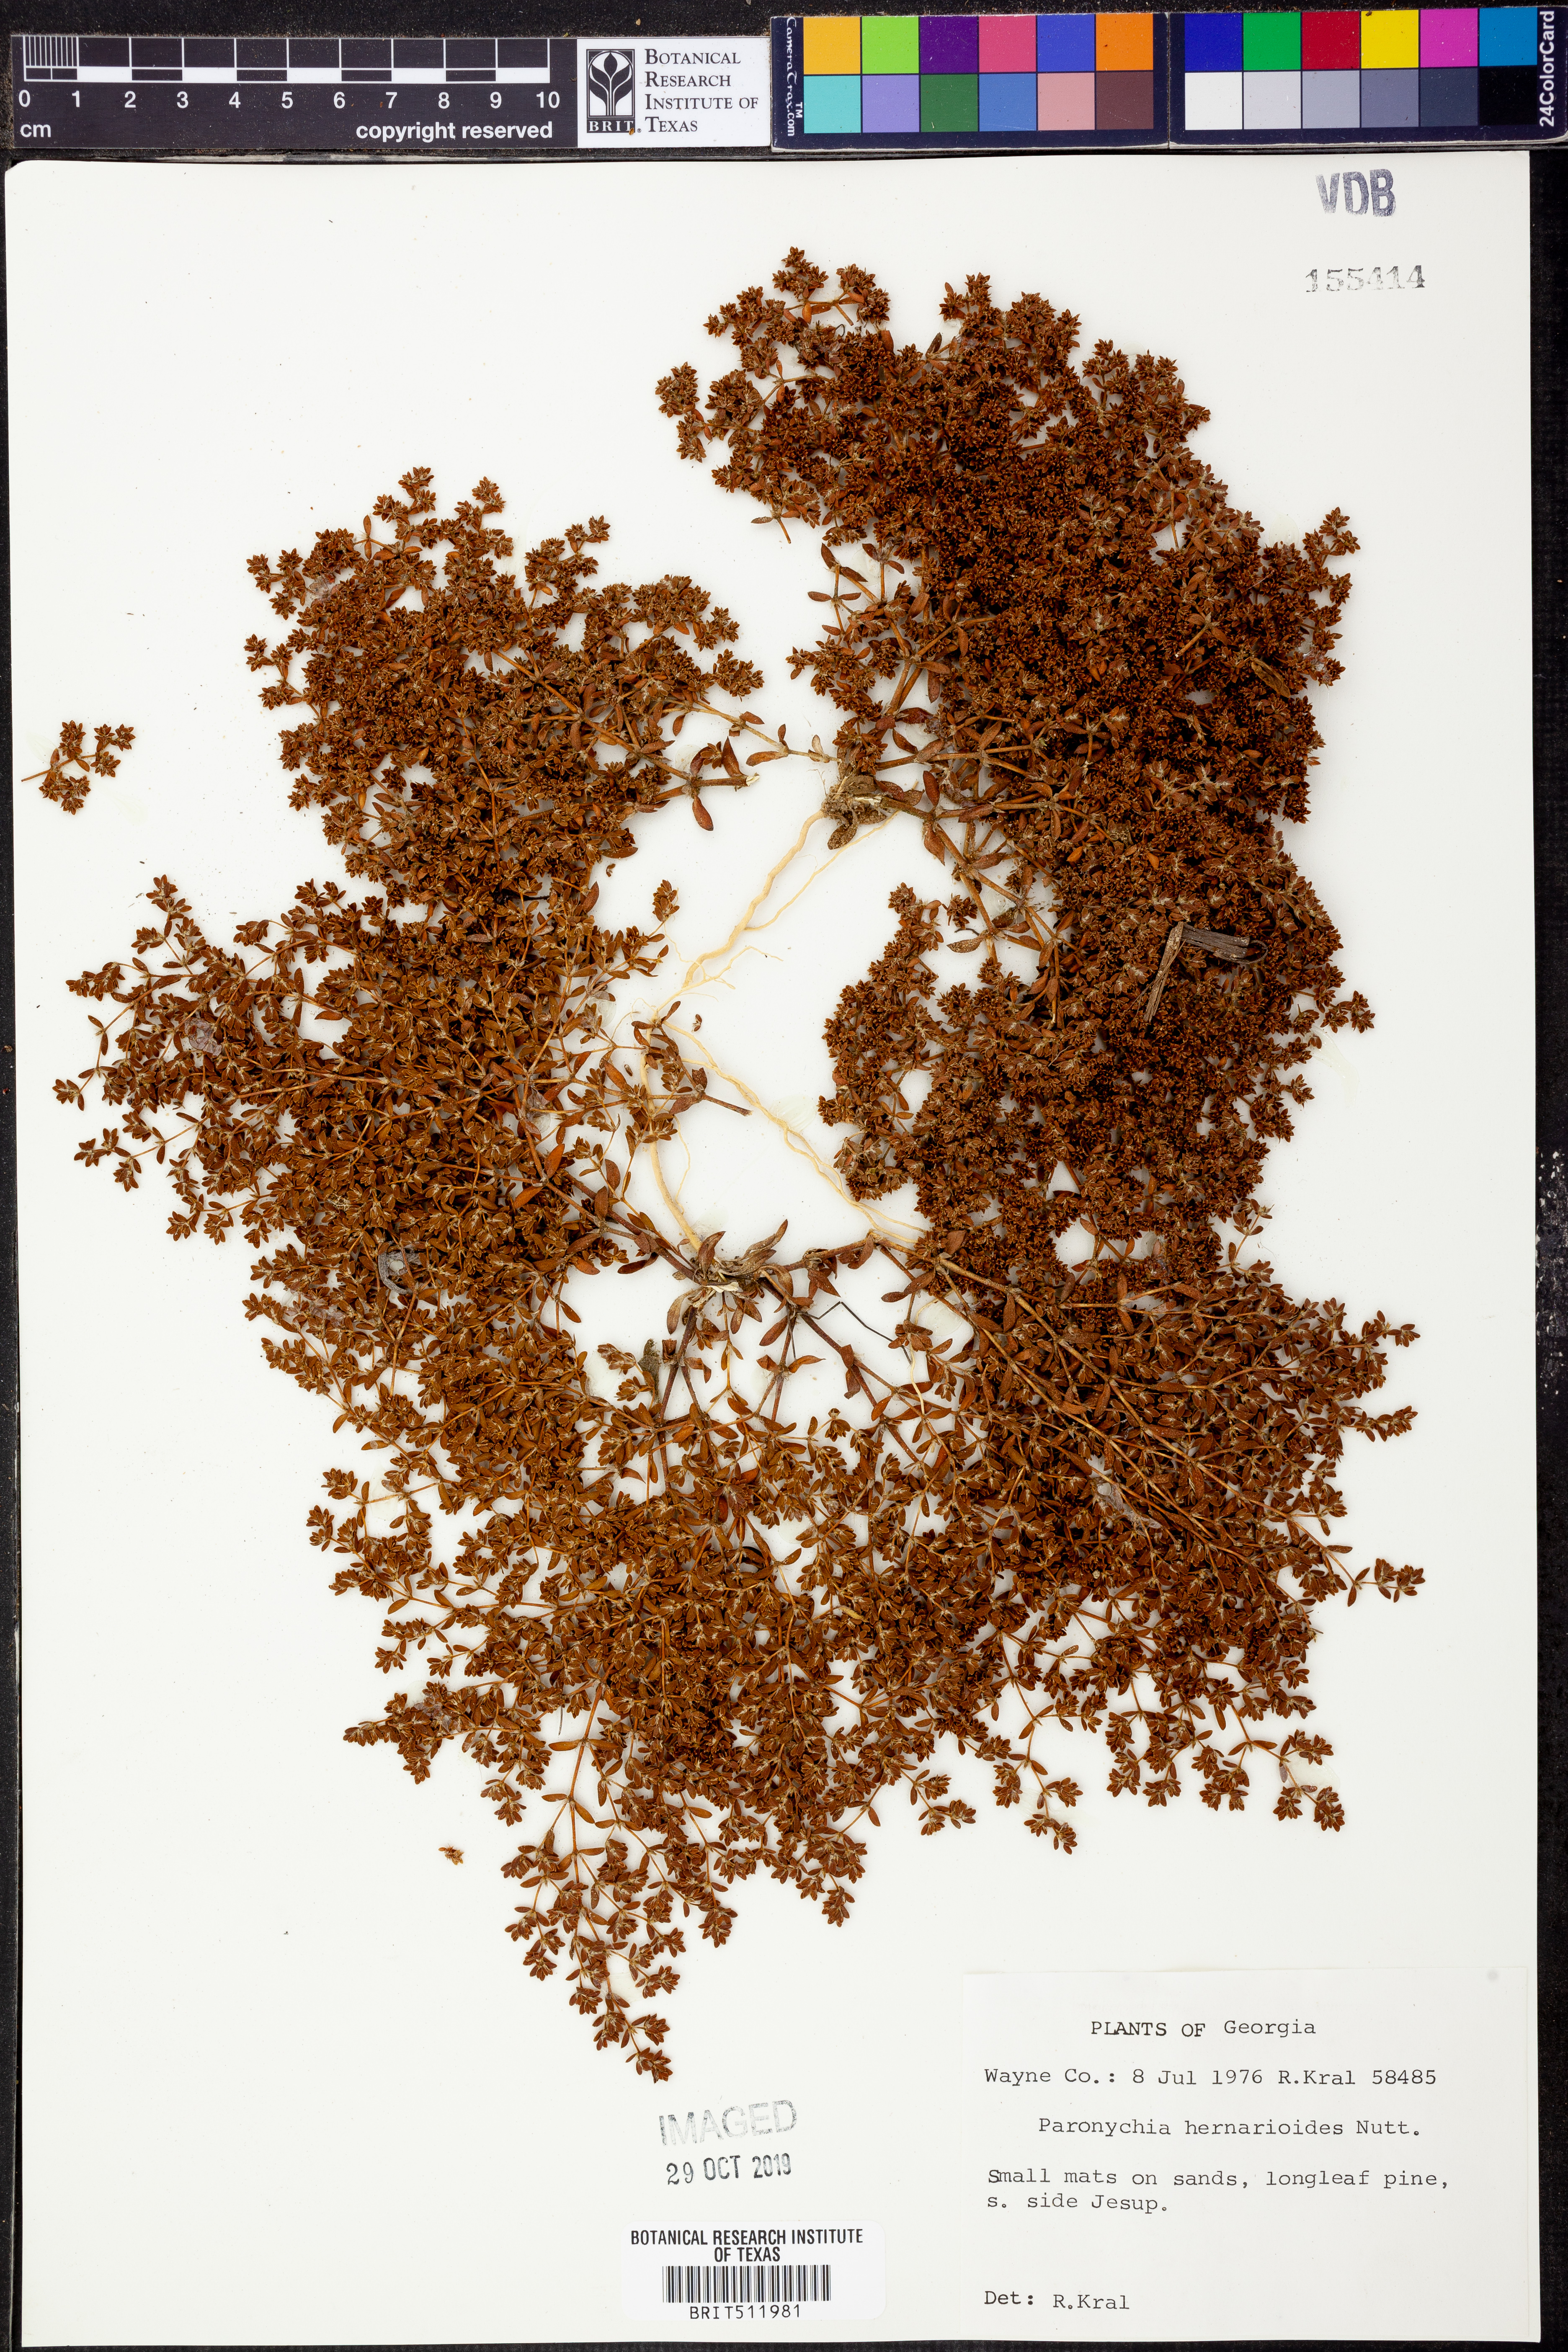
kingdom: Plantae
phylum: Tracheophyta
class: Magnoliopsida
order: Caryophyllales
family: Caryophyllaceae
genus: Paronychia
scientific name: Paronychia herniarioides
